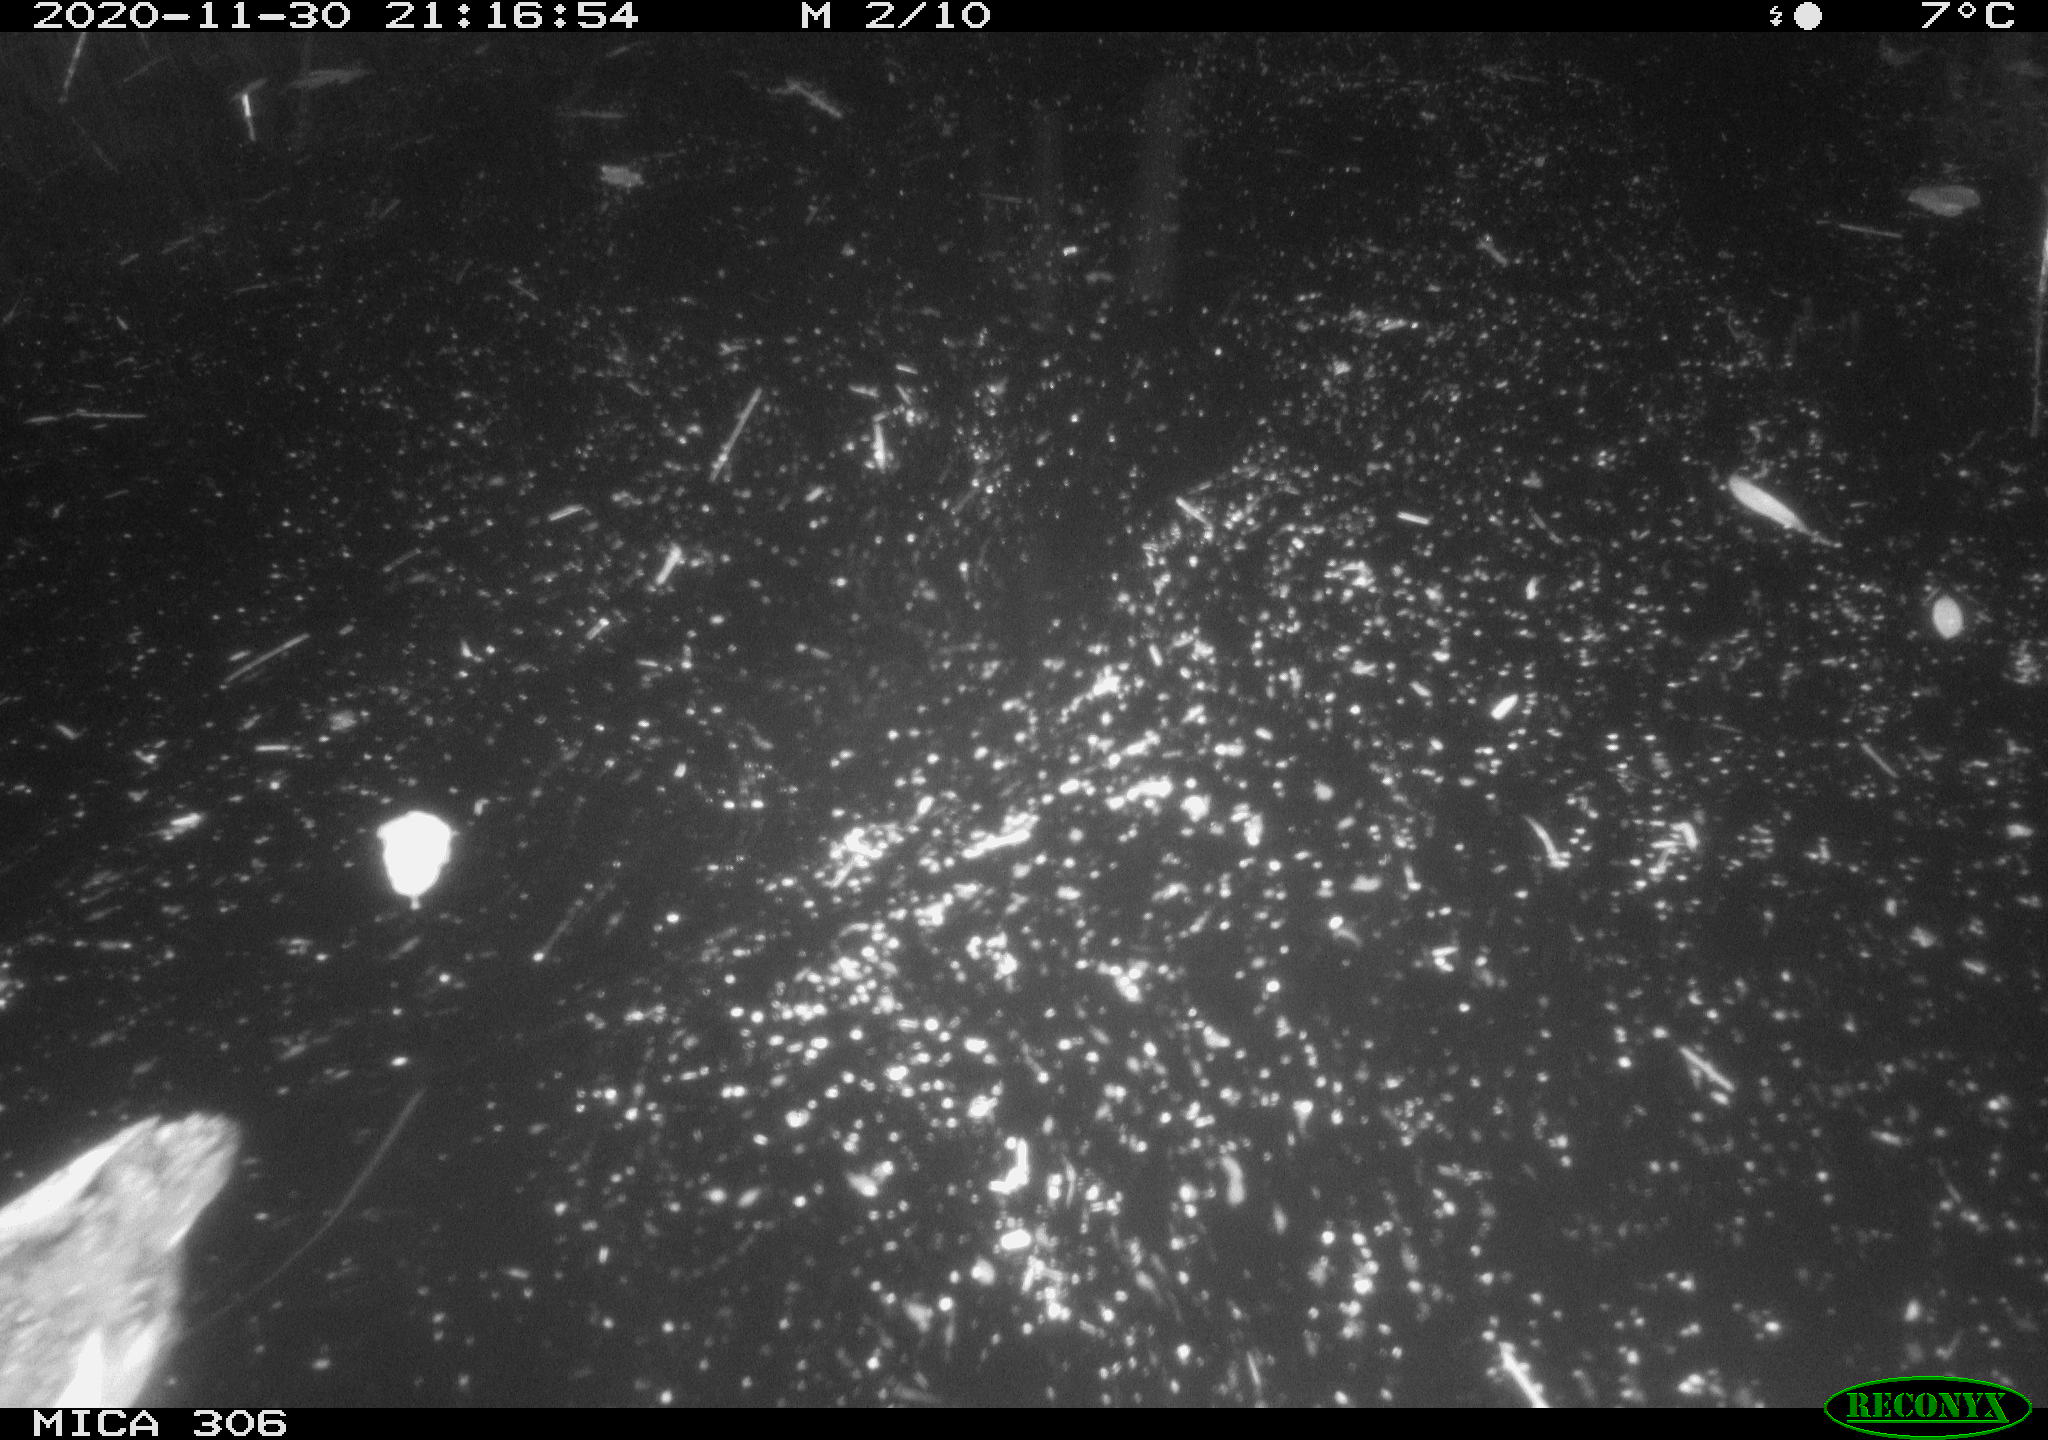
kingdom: Animalia
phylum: Chordata
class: Aves
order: Gruiformes
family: Rallidae
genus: Gallinula
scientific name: Gallinula chloropus
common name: Common moorhen
